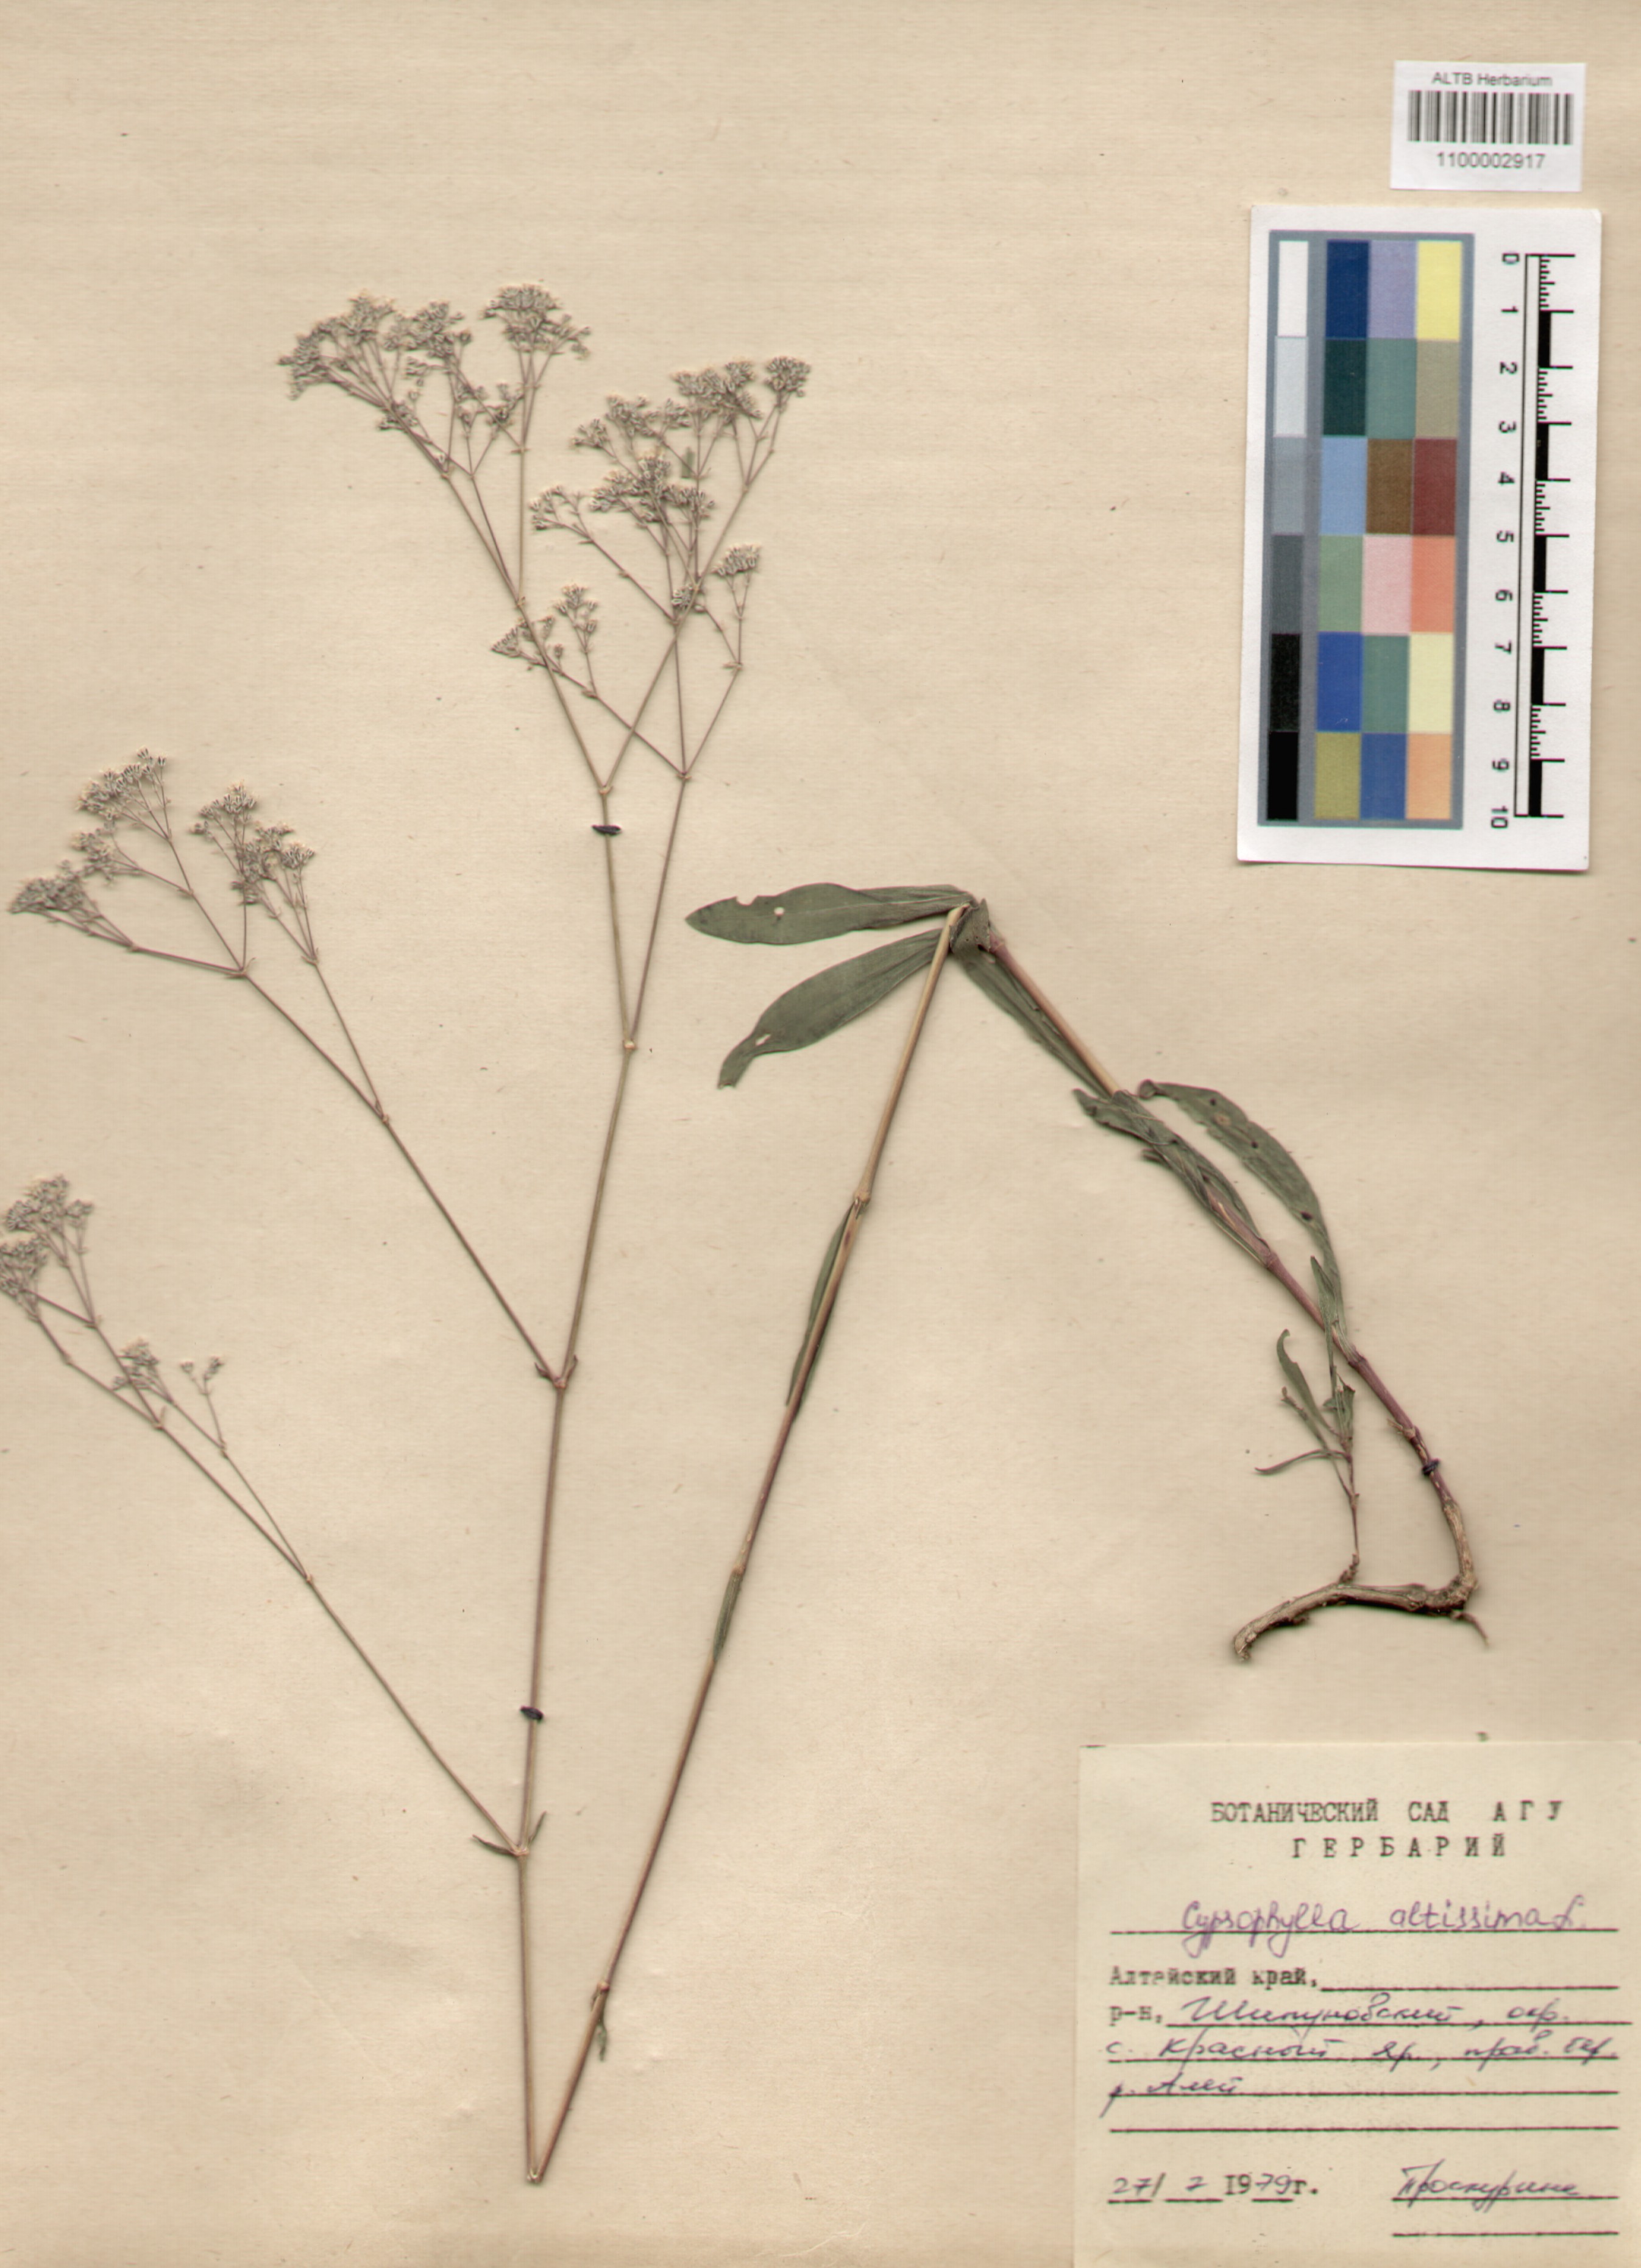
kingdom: Plantae
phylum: Tracheophyta
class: Magnoliopsida
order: Caryophyllales
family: Caryophyllaceae
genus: Gypsophila
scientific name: Gypsophila altissima
